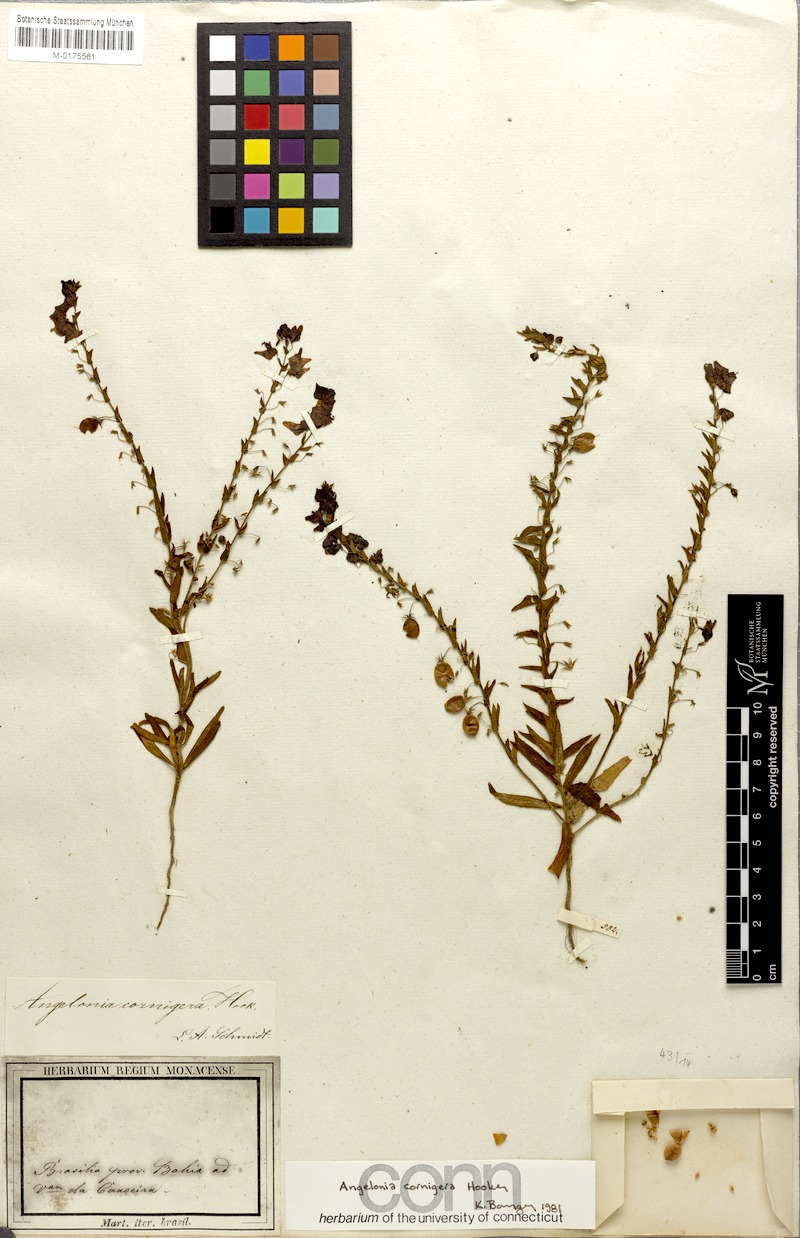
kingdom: Plantae
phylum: Tracheophyta
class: Magnoliopsida
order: Lamiales
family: Plantaginaceae
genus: Angelonia
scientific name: Angelonia cornigera
